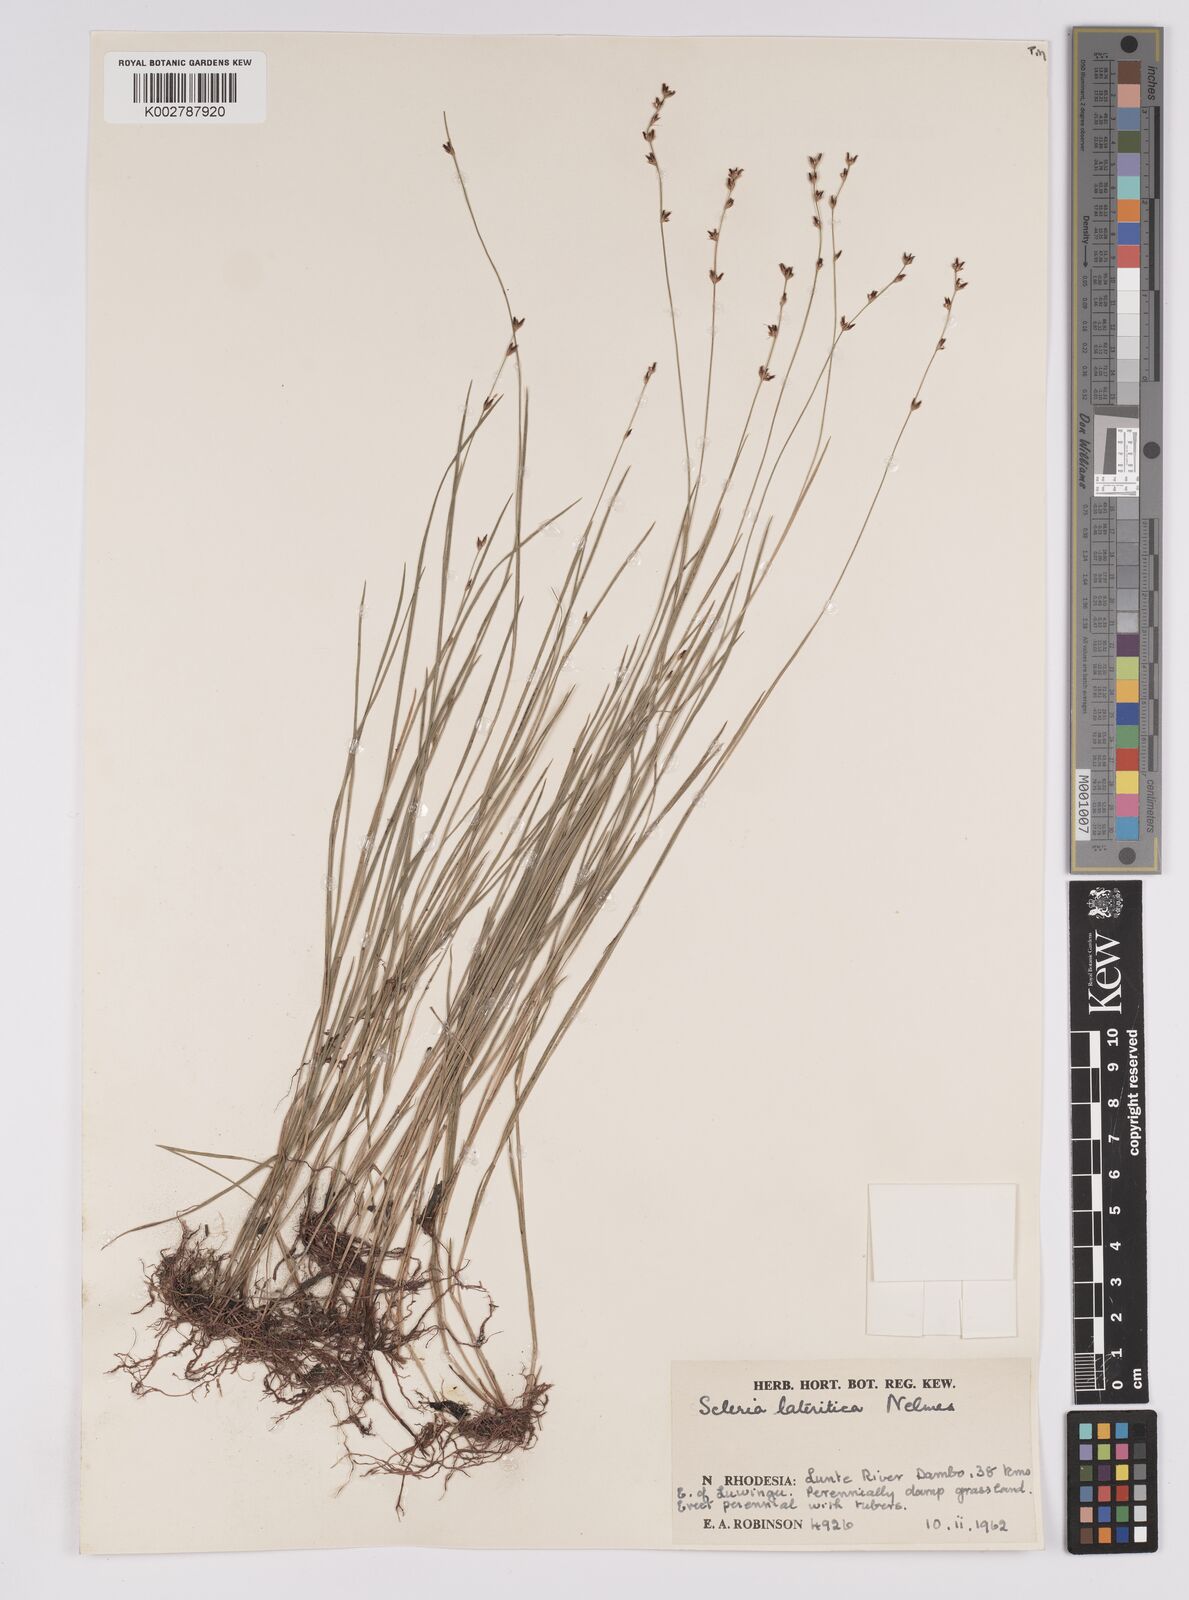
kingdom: Plantae
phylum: Tracheophyta
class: Liliopsida
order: Poales
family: Cyperaceae
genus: Scleria
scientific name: Scleria lateritica
